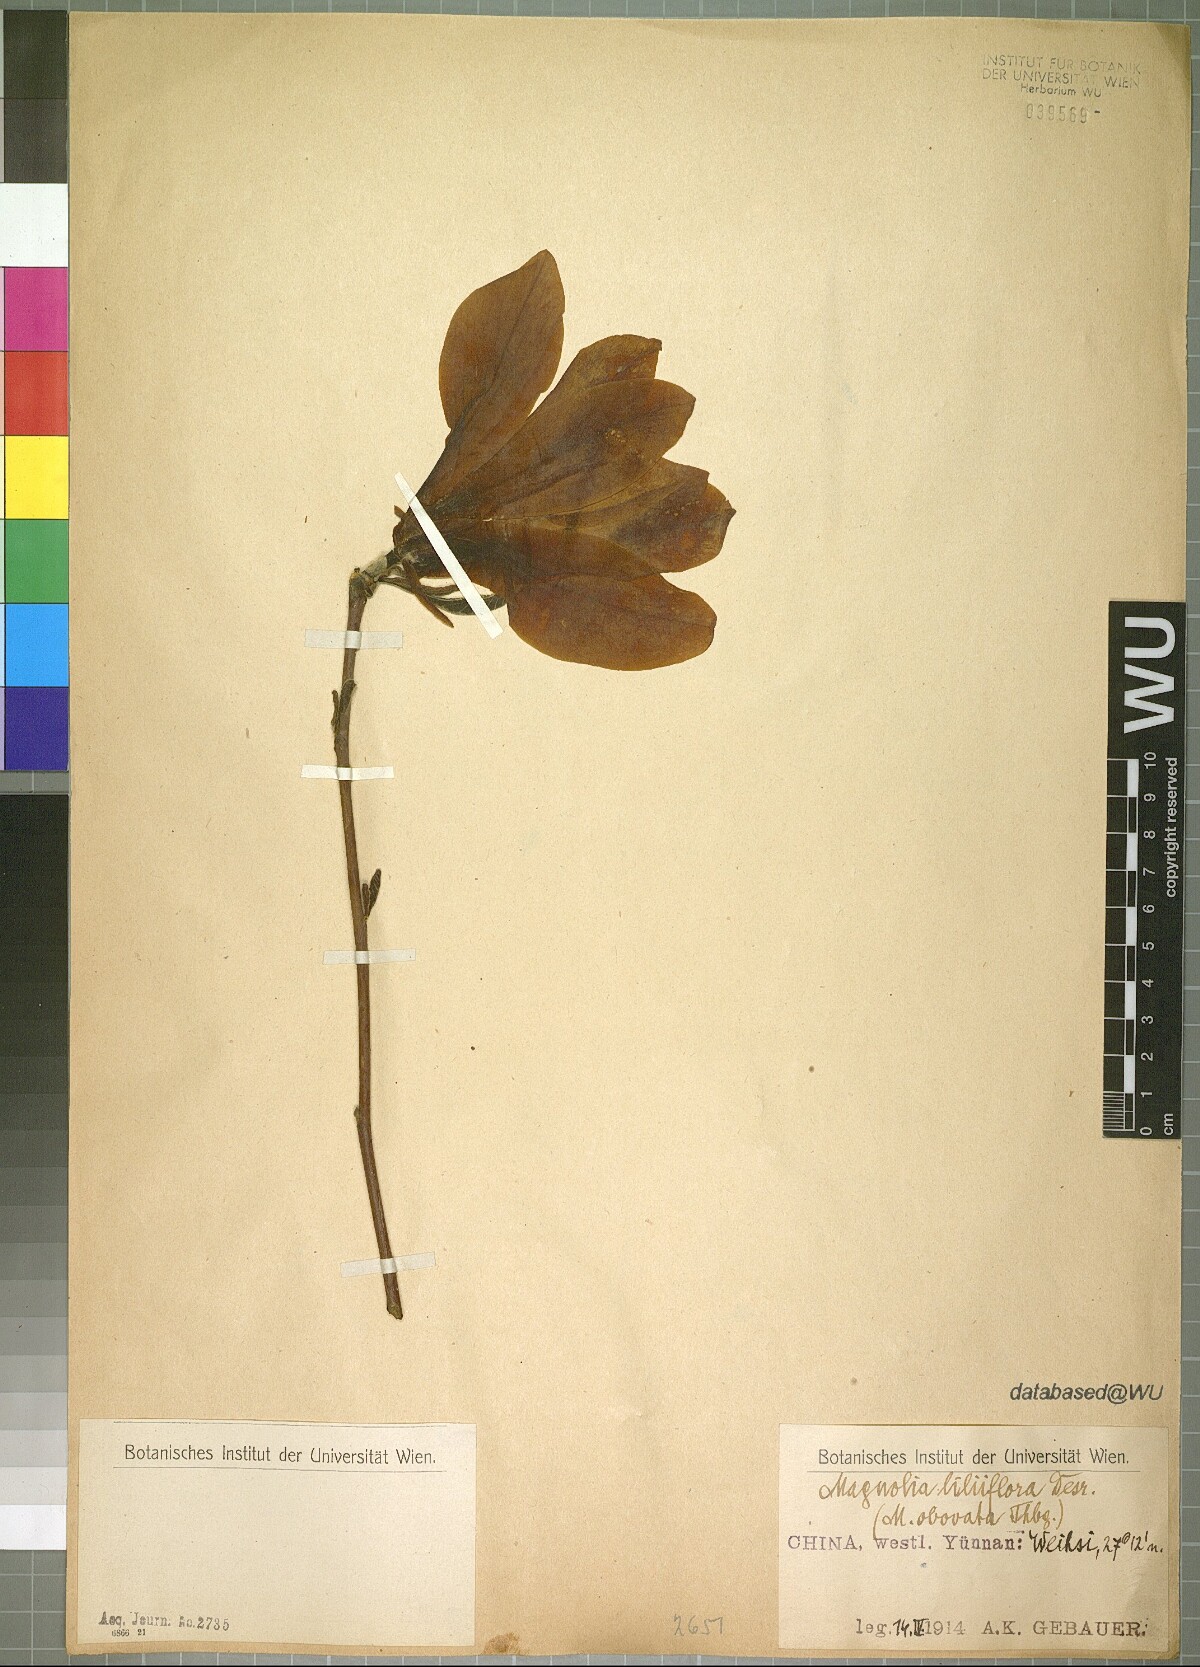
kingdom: Plantae
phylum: Tracheophyta
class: Magnoliopsida
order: Magnoliales
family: Magnoliaceae
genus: Magnolia
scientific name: Magnolia liliiflora
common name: Purple magnolia
